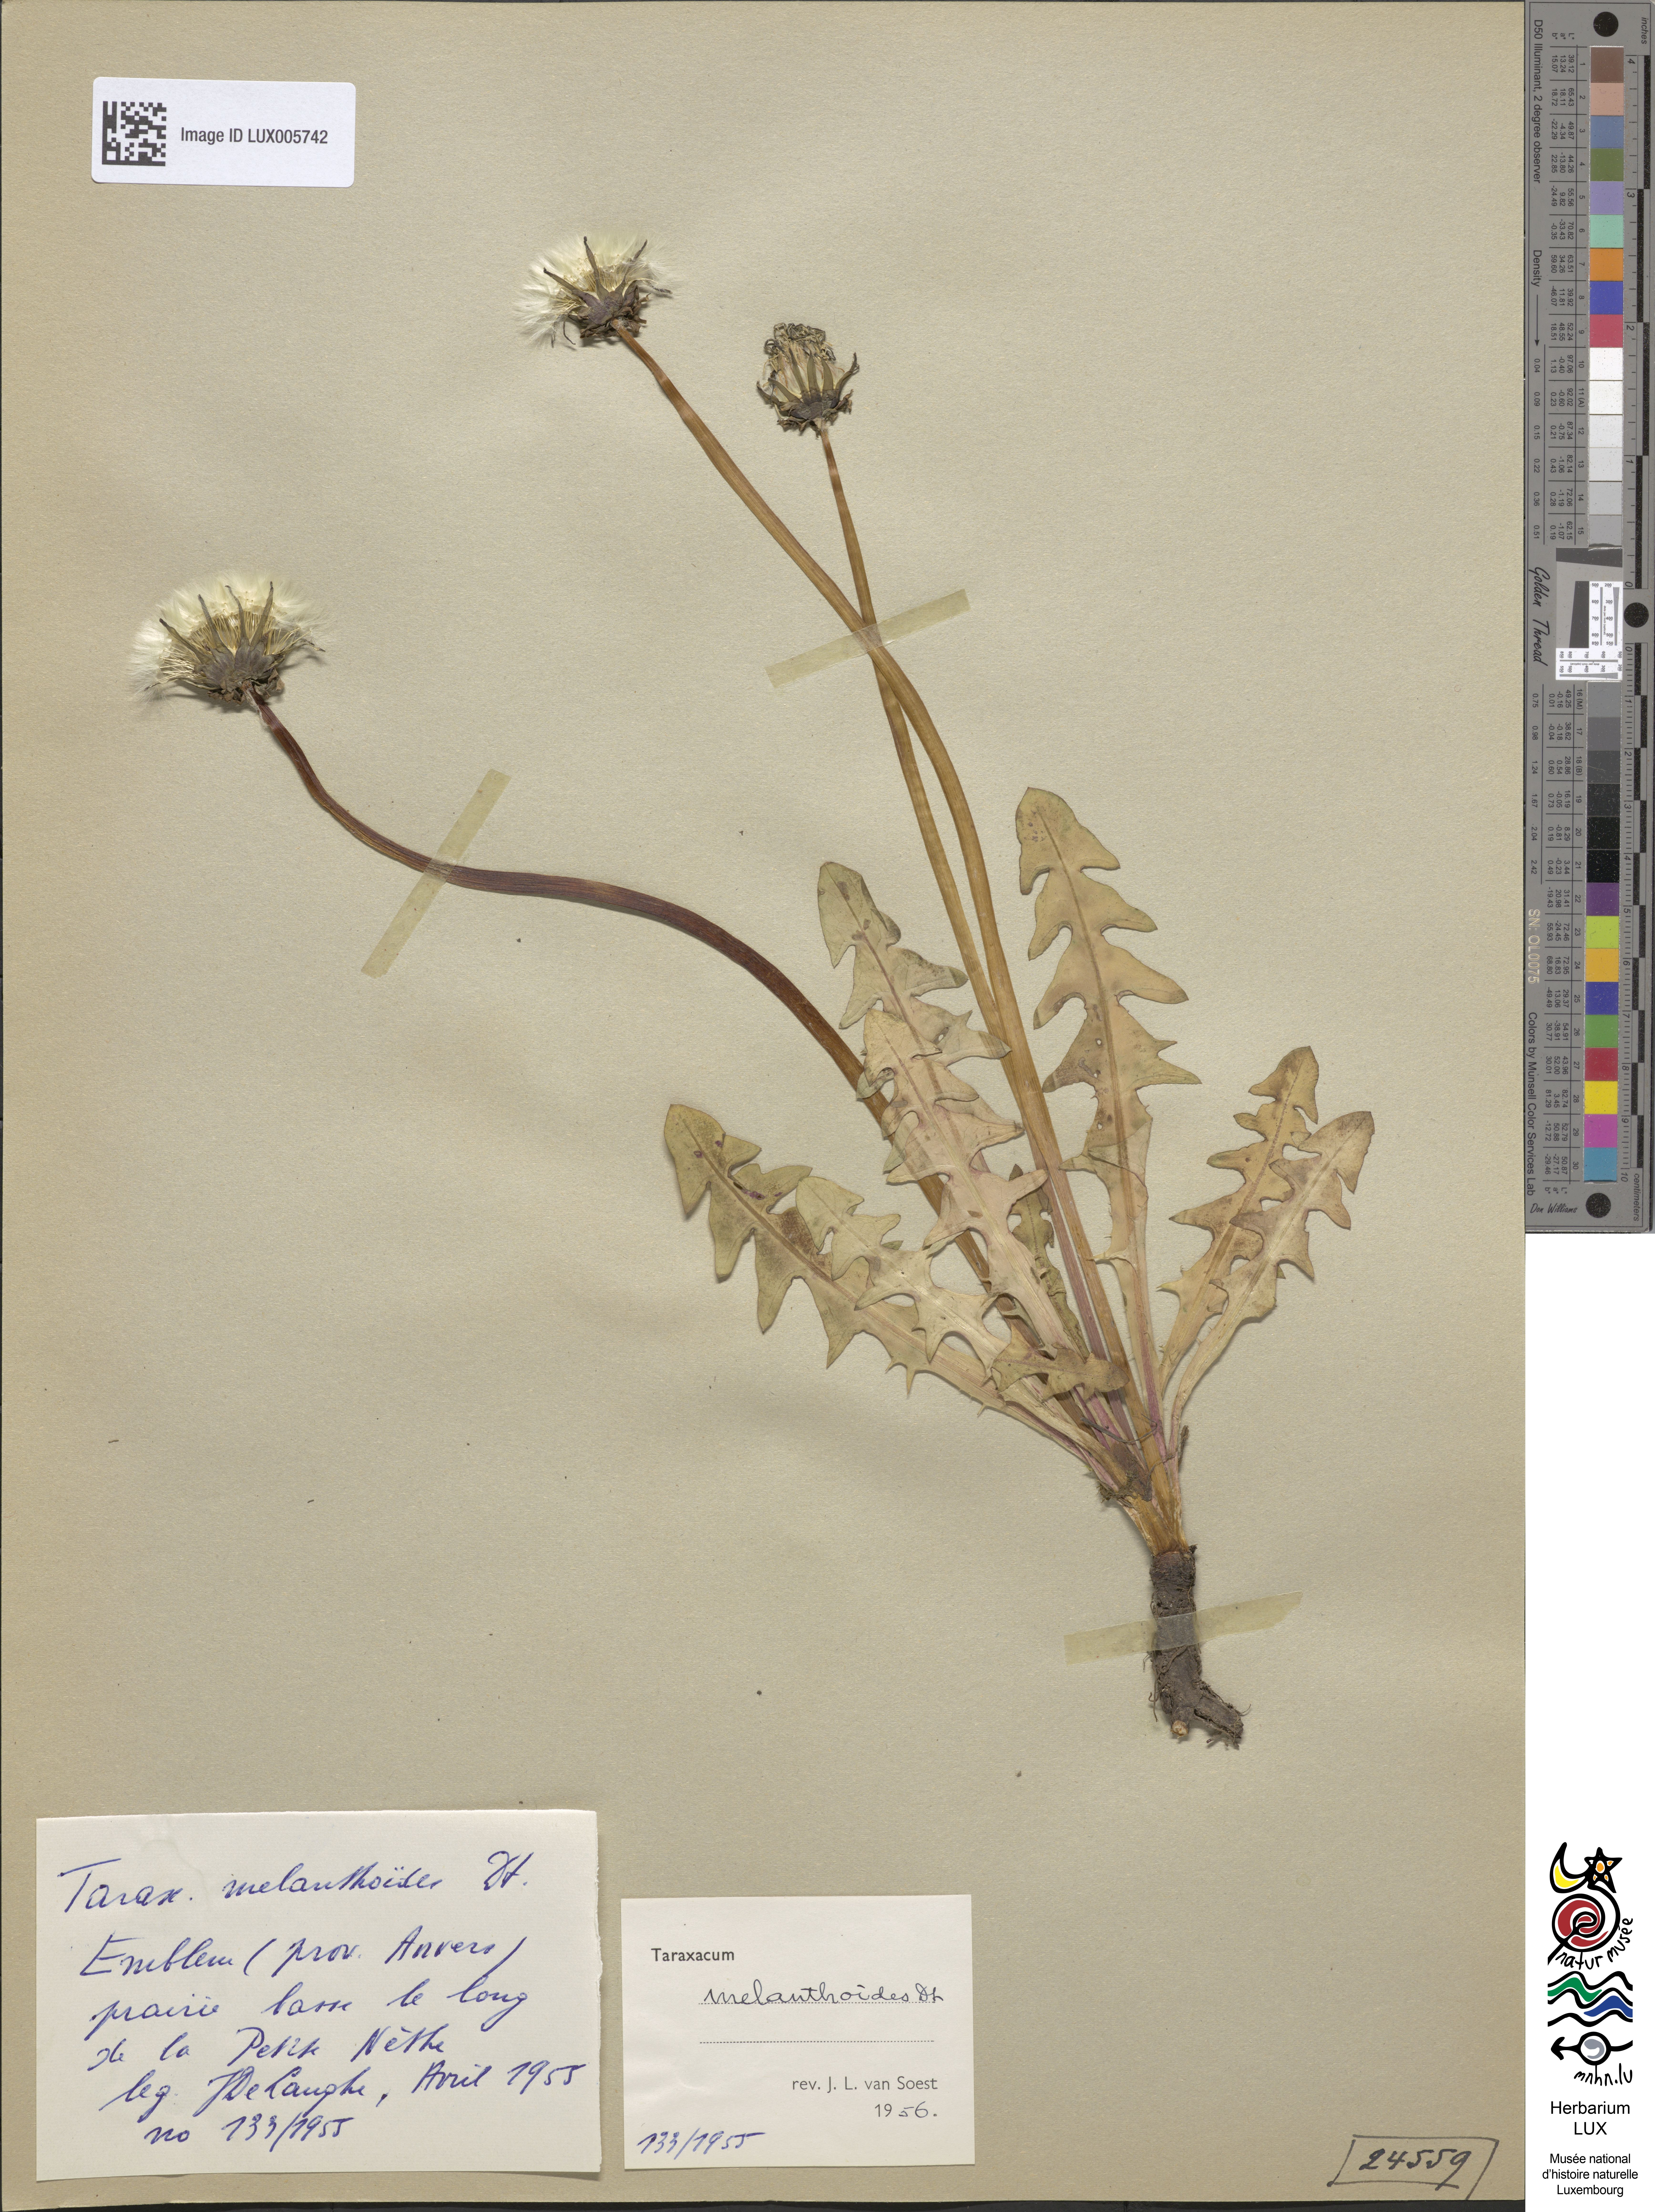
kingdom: Plantae
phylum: Tracheophyta
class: Magnoliopsida
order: Asterales
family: Asteraceae
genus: Taraxacum
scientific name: Taraxacum melanthoides
